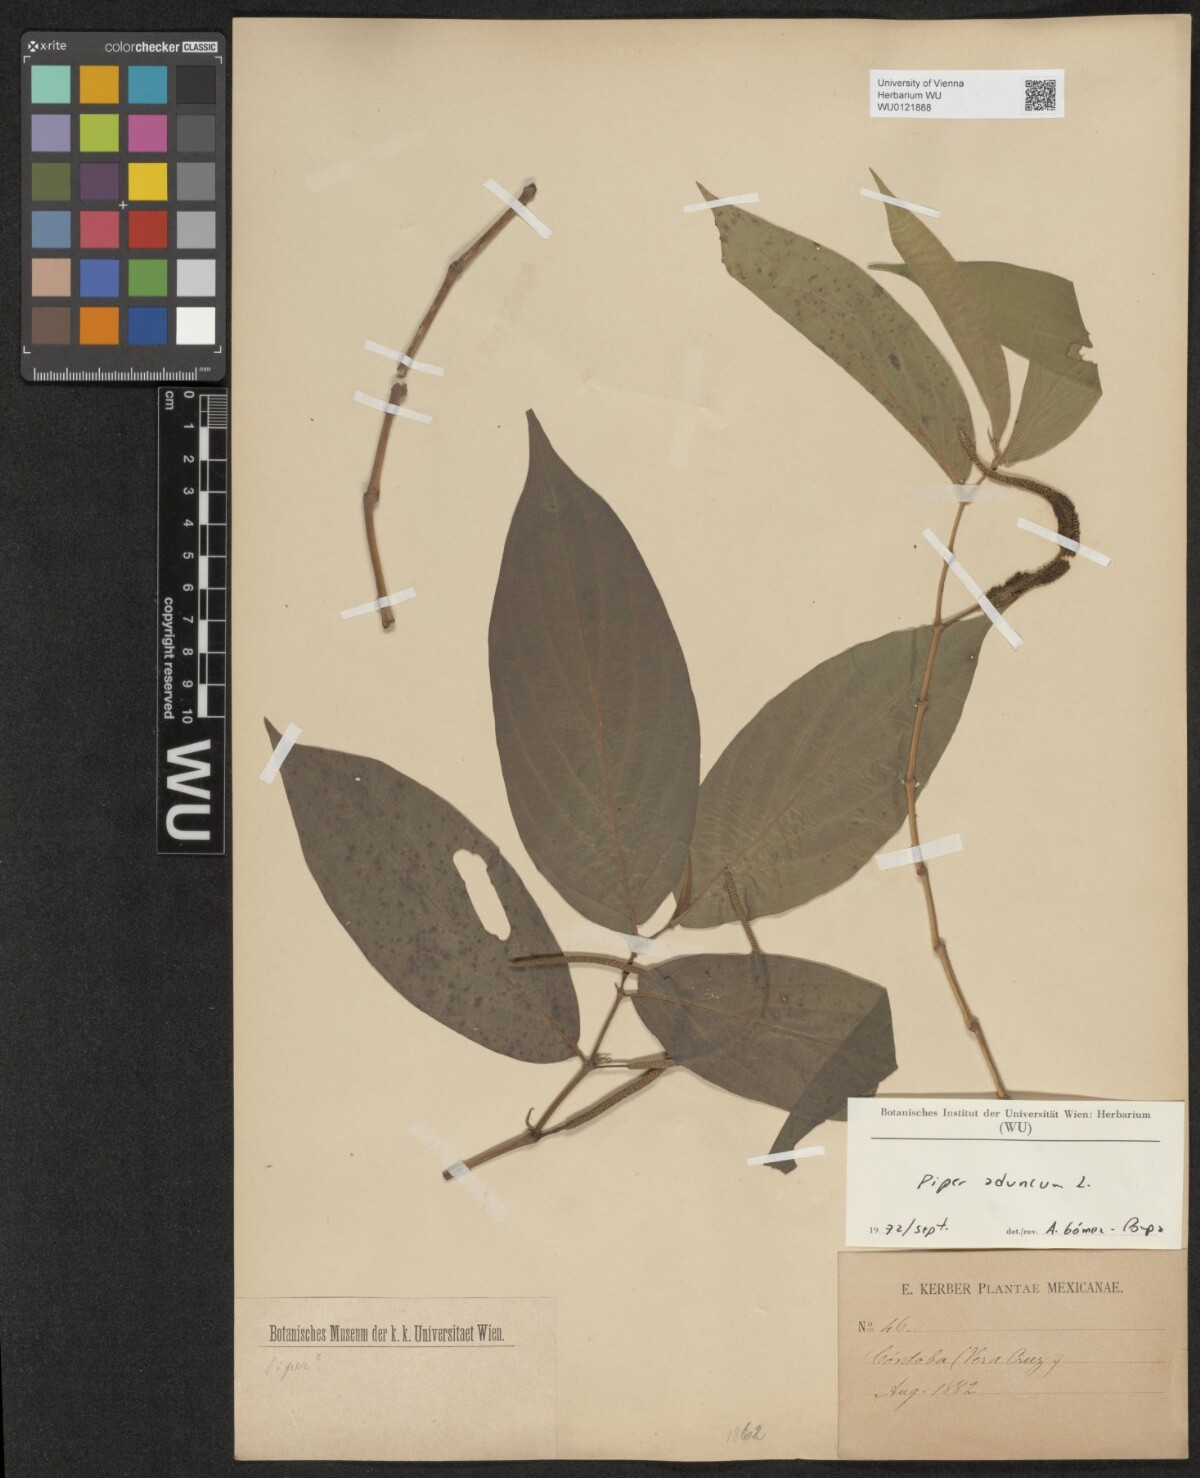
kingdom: Plantae
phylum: Tracheophyta
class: Magnoliopsida
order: Piperales
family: Piperaceae
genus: Piper
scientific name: Piper aduncum
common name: Spiked pepper
